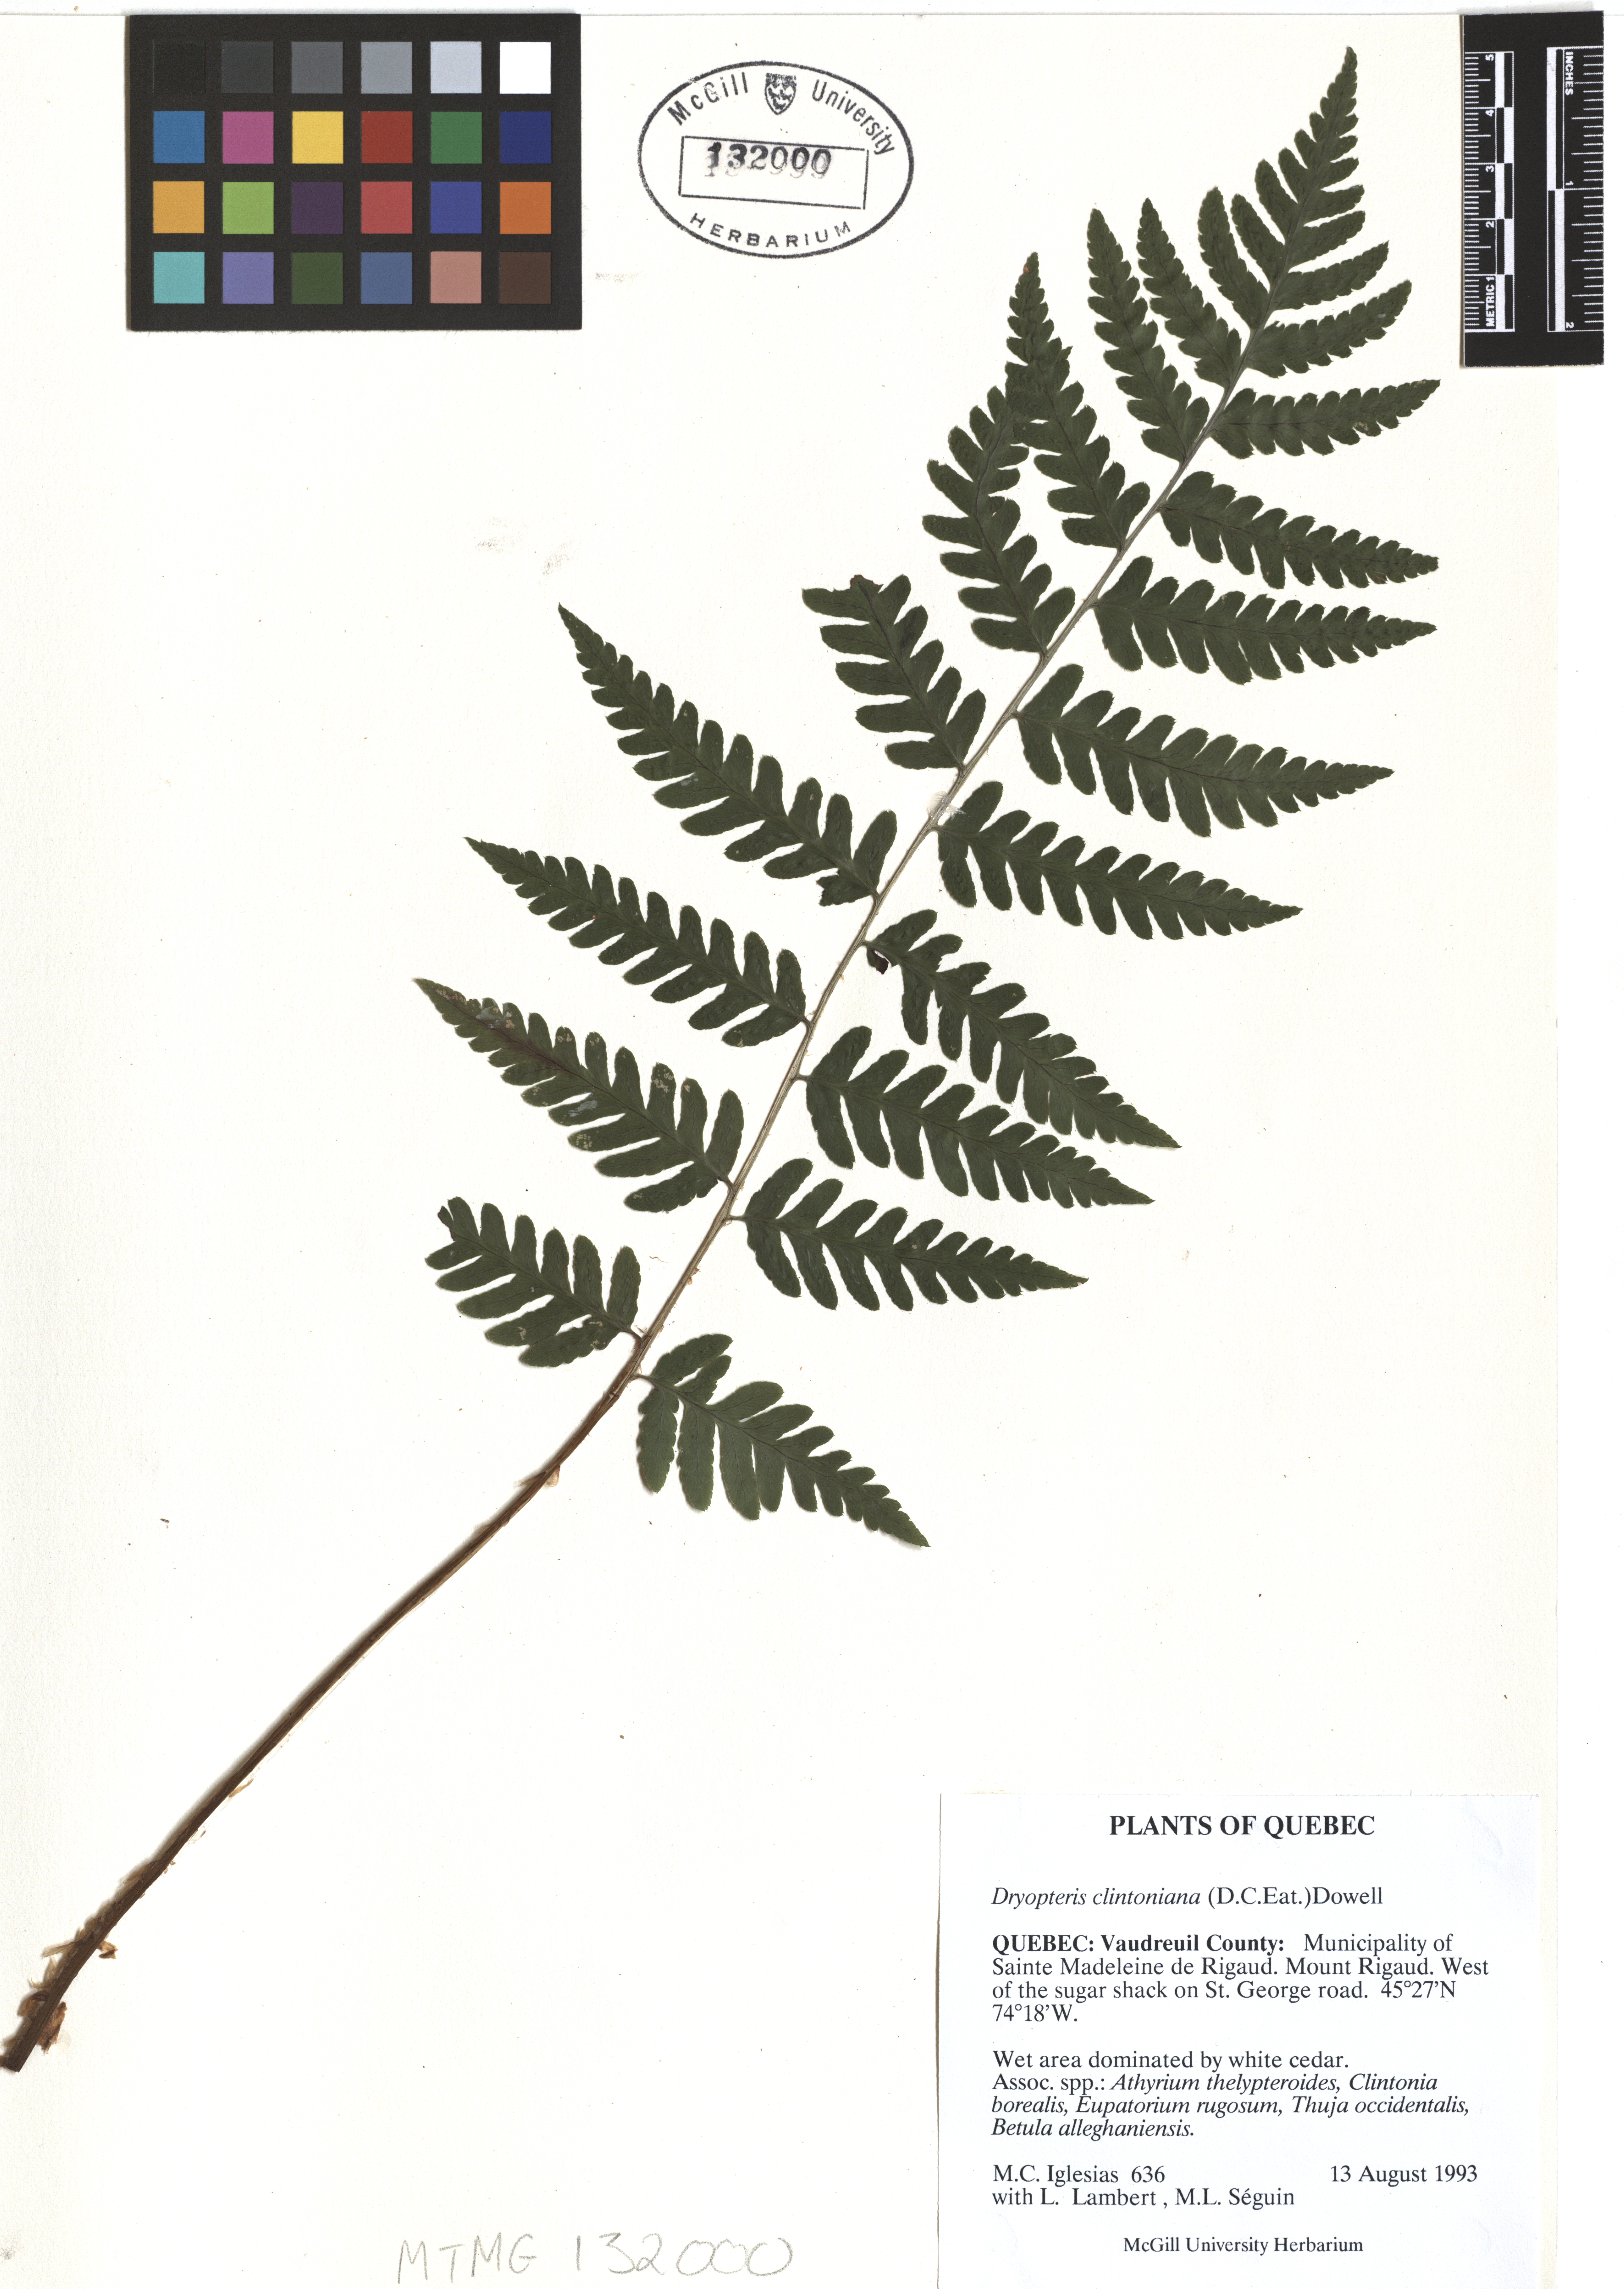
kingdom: Plantae
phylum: Tracheophyta
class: Polypodiopsida
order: Polypodiales
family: Dryopteridaceae
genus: Dryopteris
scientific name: Dryopteris clintoniana
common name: Clinton's wood fern
